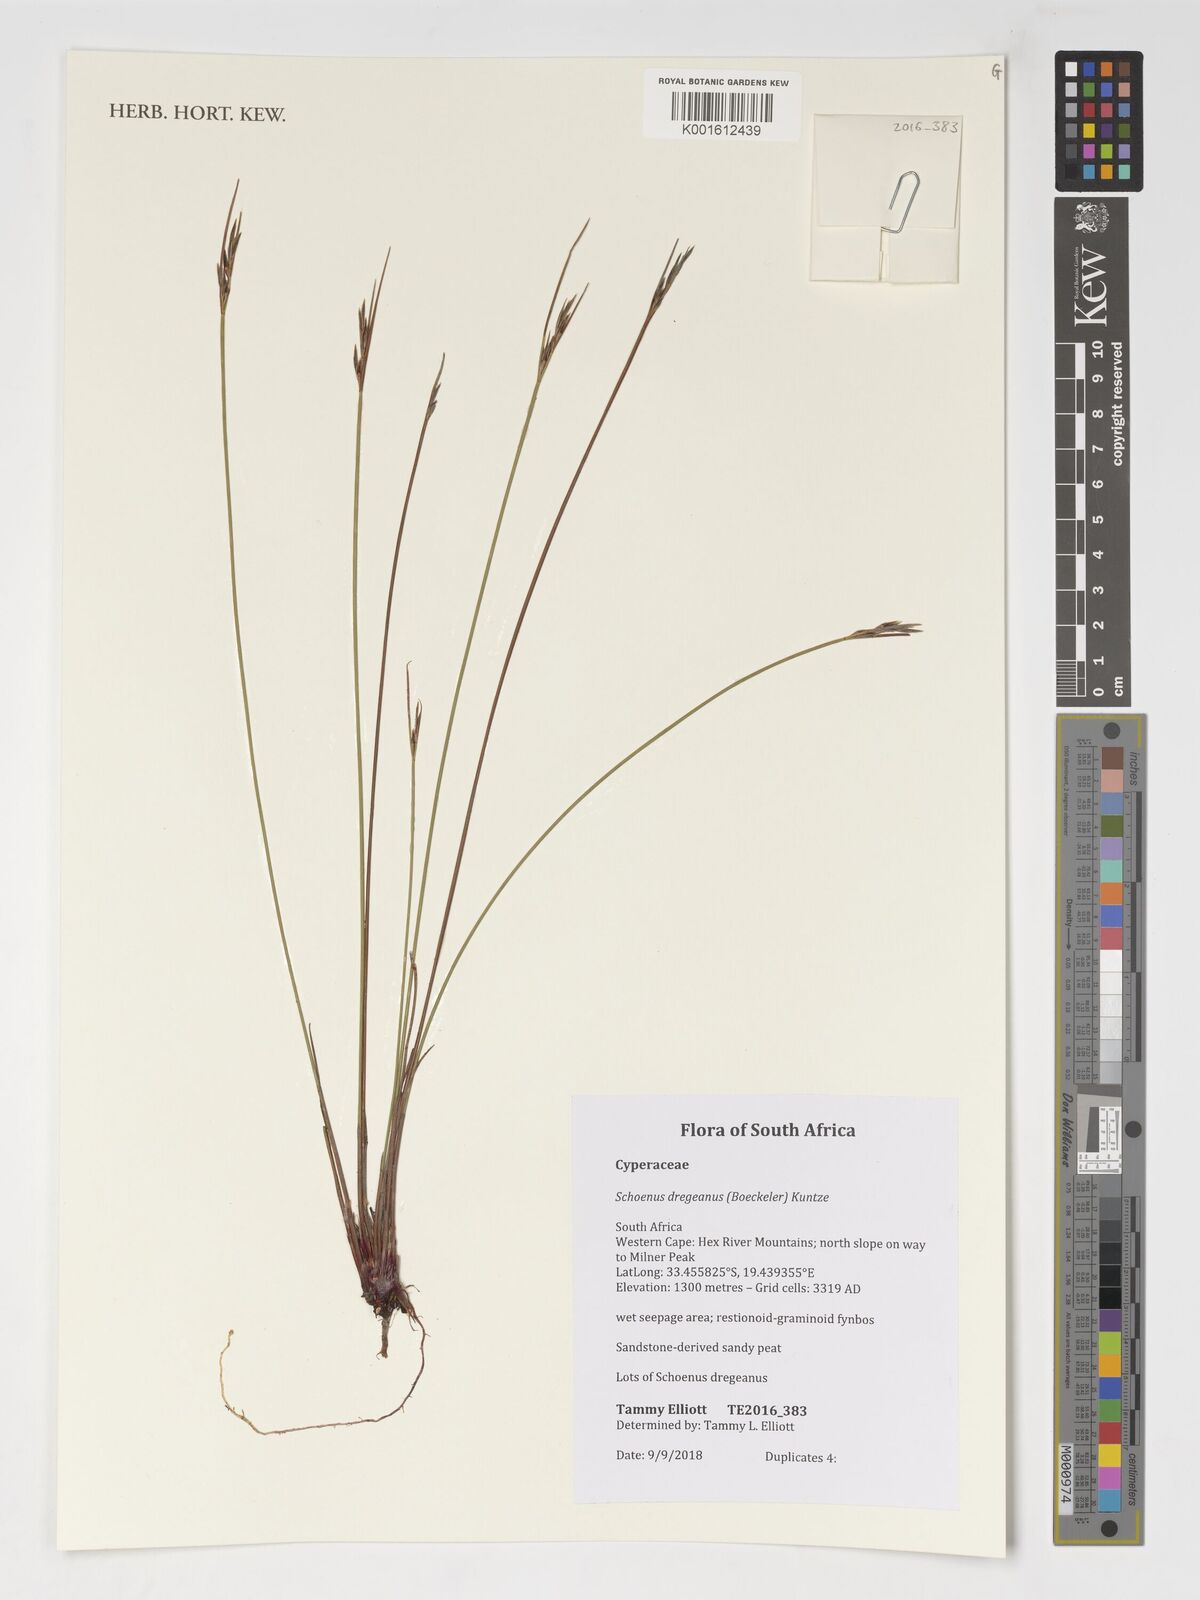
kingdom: Plantae
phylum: Tracheophyta
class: Liliopsida
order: Poales
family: Cyperaceae
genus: Schoenus
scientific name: Schoenus dregeanus
